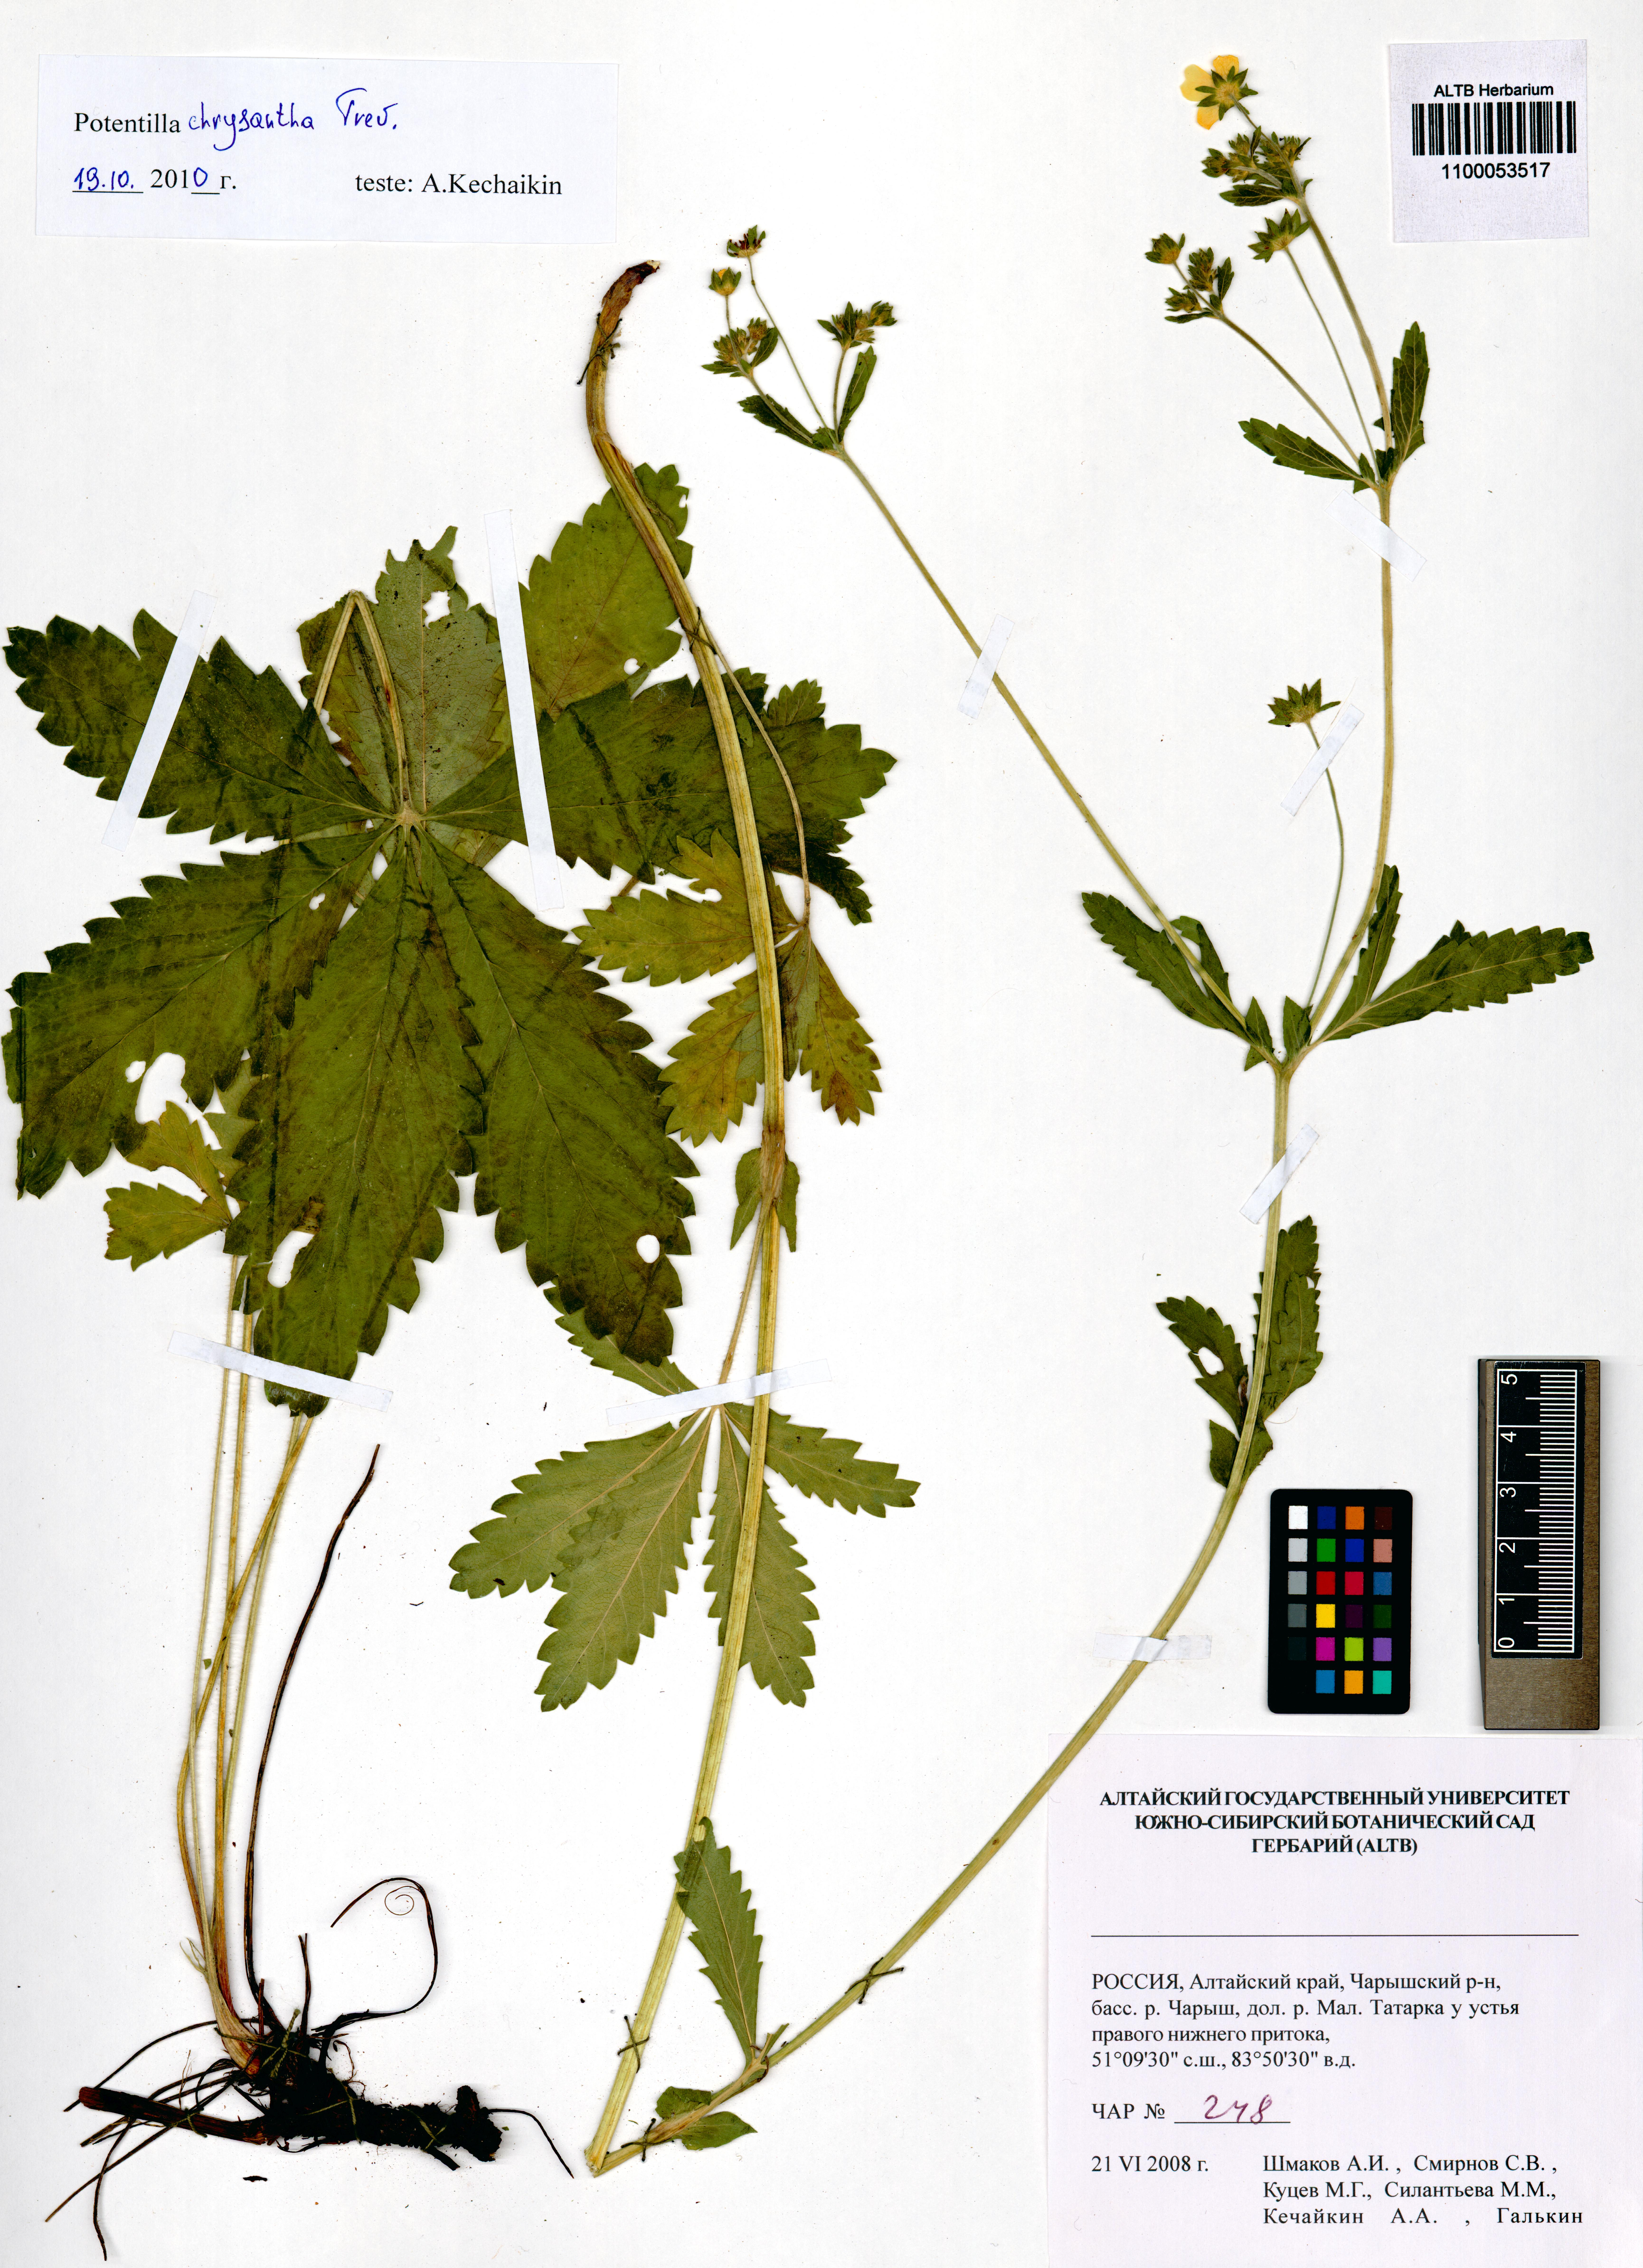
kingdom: Plantae
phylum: Tracheophyta
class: Magnoliopsida
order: Rosales
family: Rosaceae
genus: Potentilla
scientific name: Potentilla chrysantha
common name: Thuringian cinquefoil
